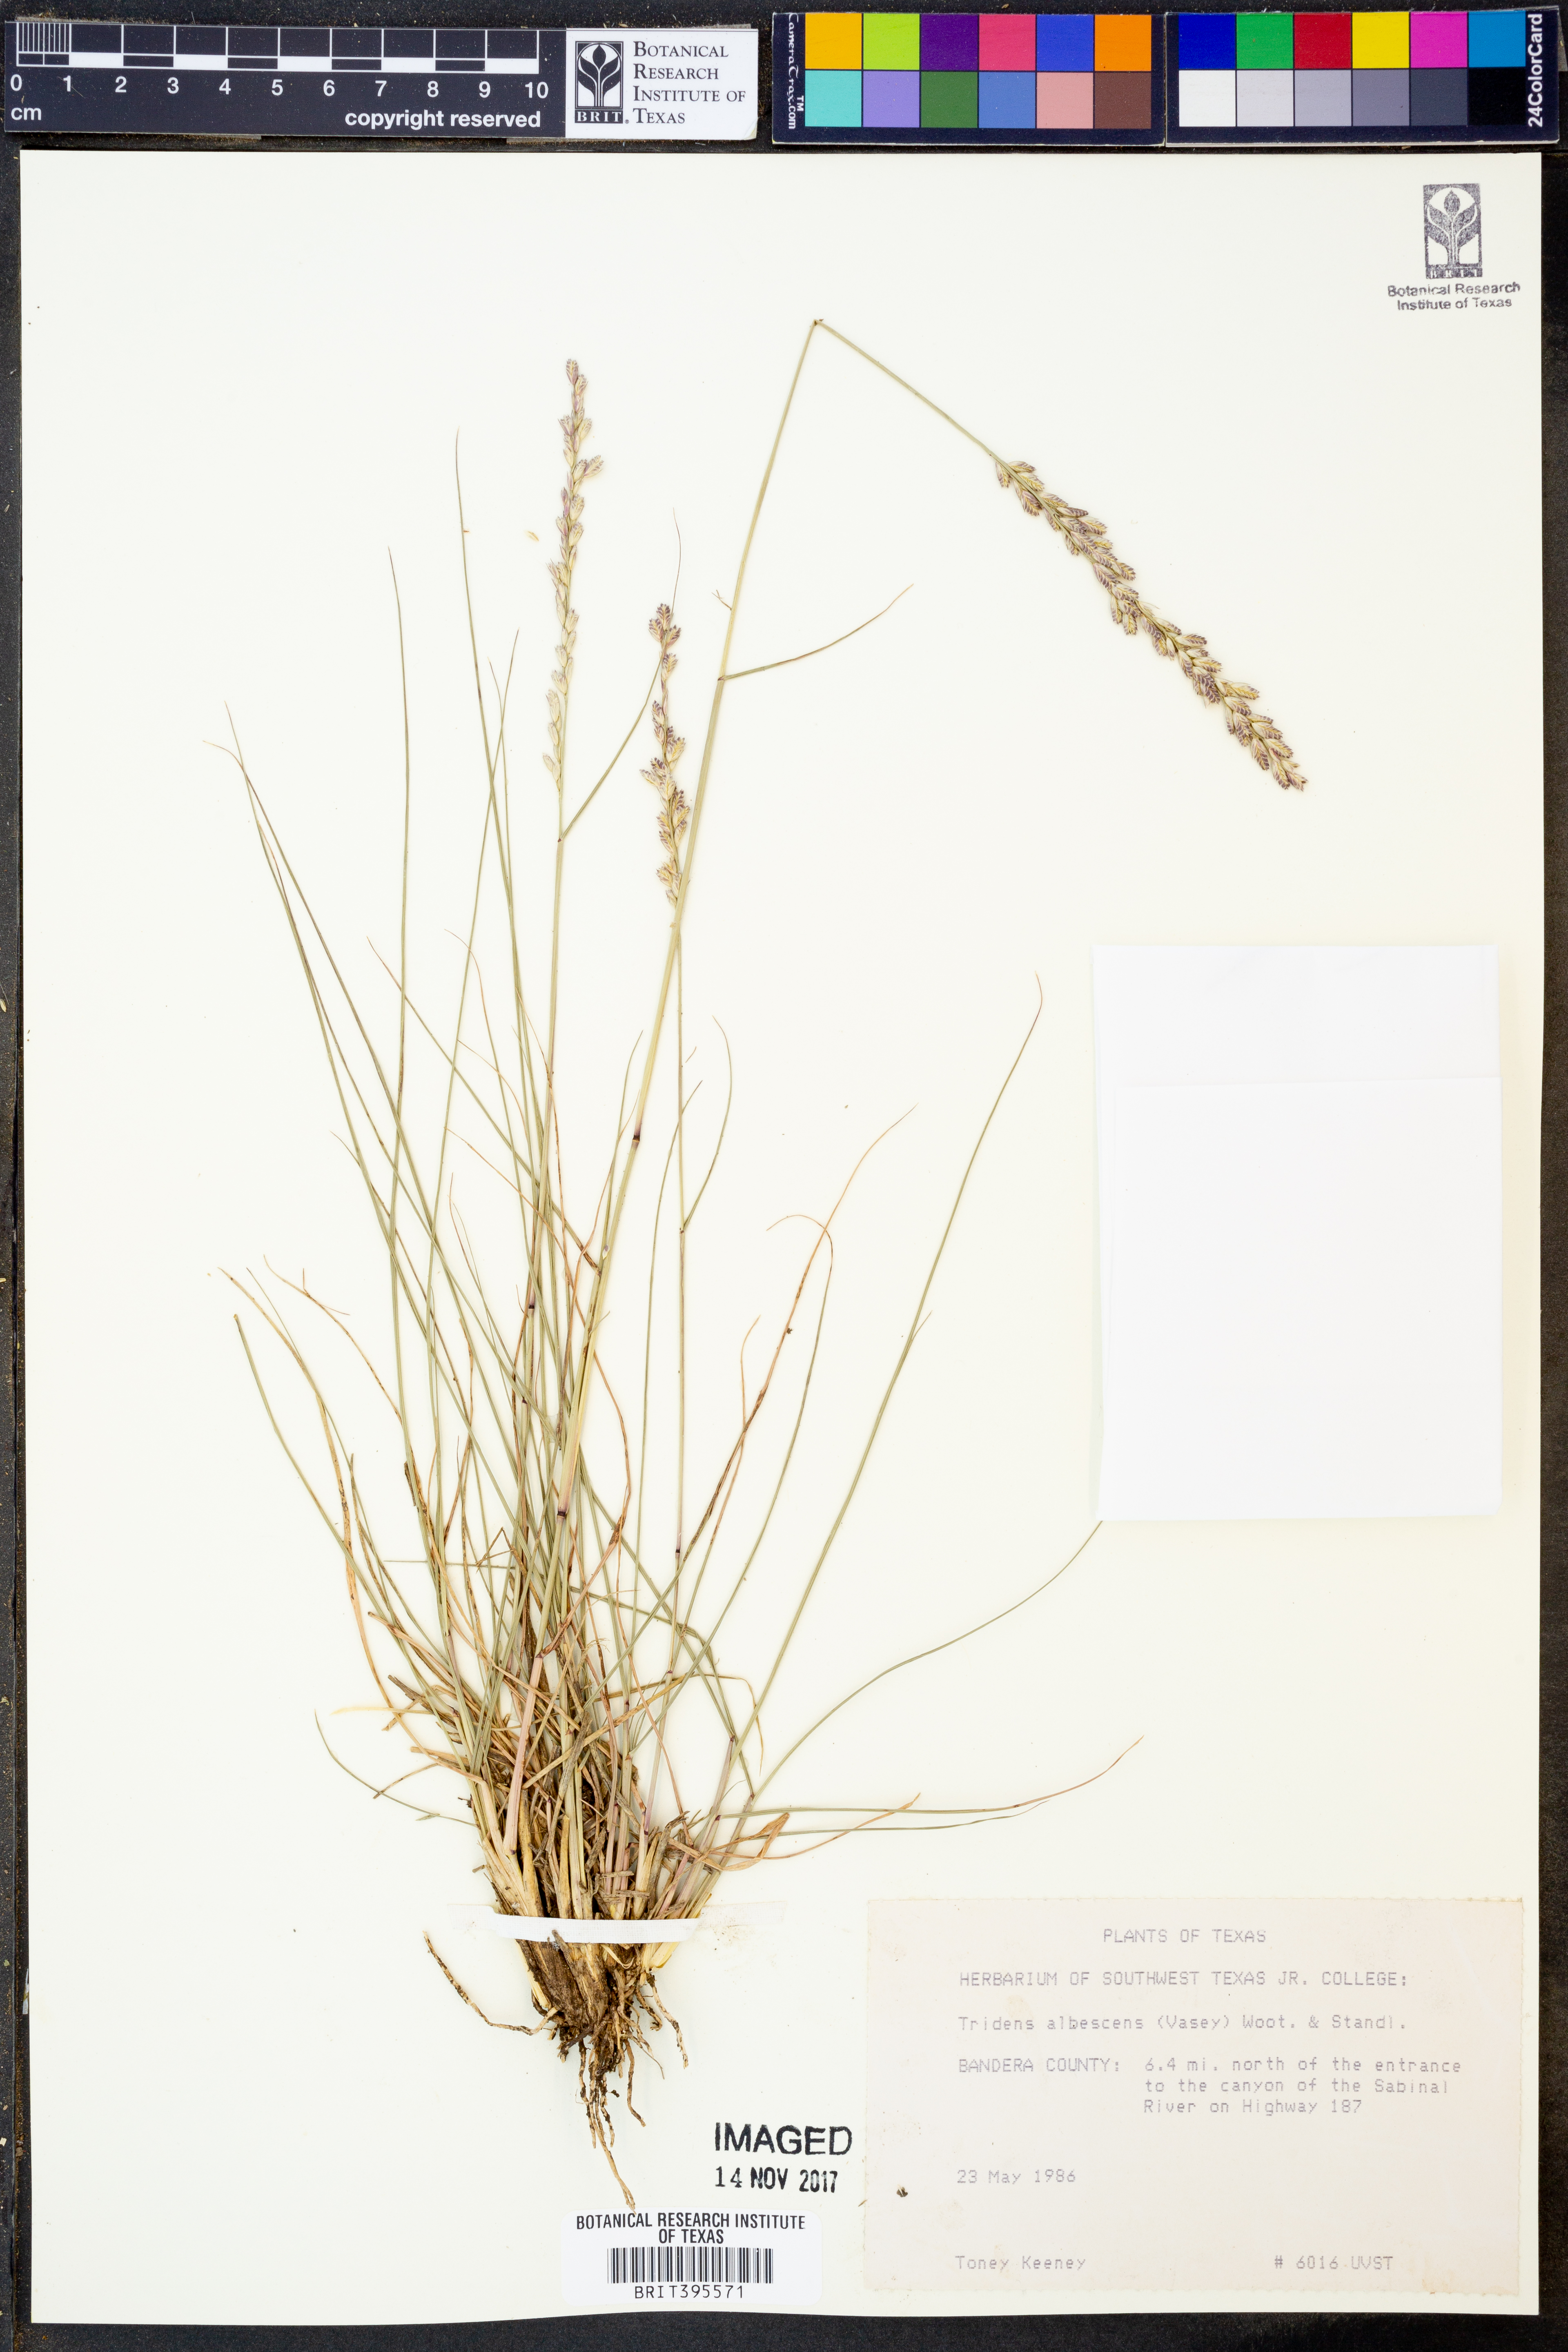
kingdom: Plantae
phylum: Tracheophyta
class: Liliopsida
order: Poales
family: Poaceae
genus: Tridens
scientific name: Tridens albescens
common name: White tridens
